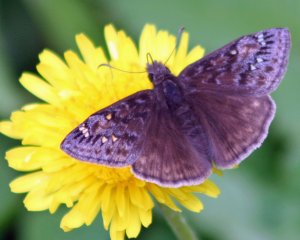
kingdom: Animalia
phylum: Arthropoda
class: Insecta
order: Lepidoptera
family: Hesperiidae
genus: Gesta
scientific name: Gesta
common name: Juvenal's Duskywing
